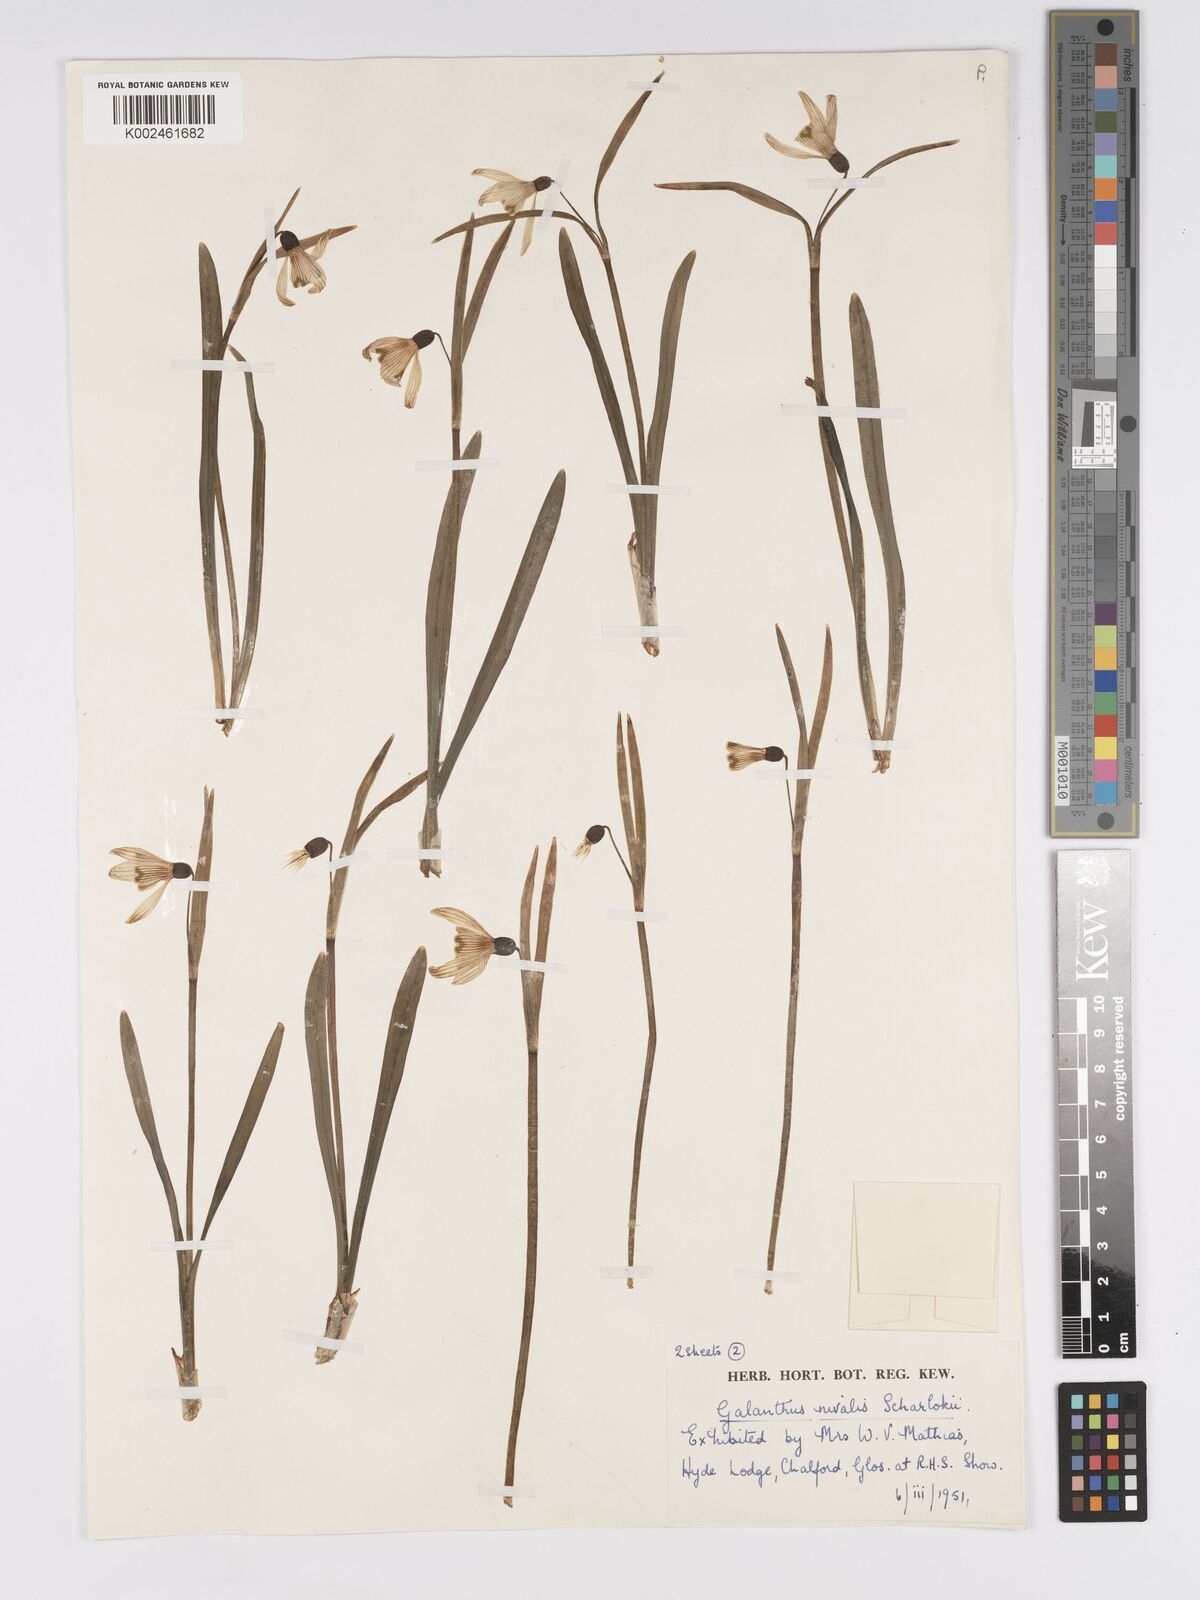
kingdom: Plantae
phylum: Tracheophyta
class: Liliopsida
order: Asparagales
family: Amaryllidaceae
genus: Galanthus
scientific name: Galanthus nivalis
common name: Snowdrop
